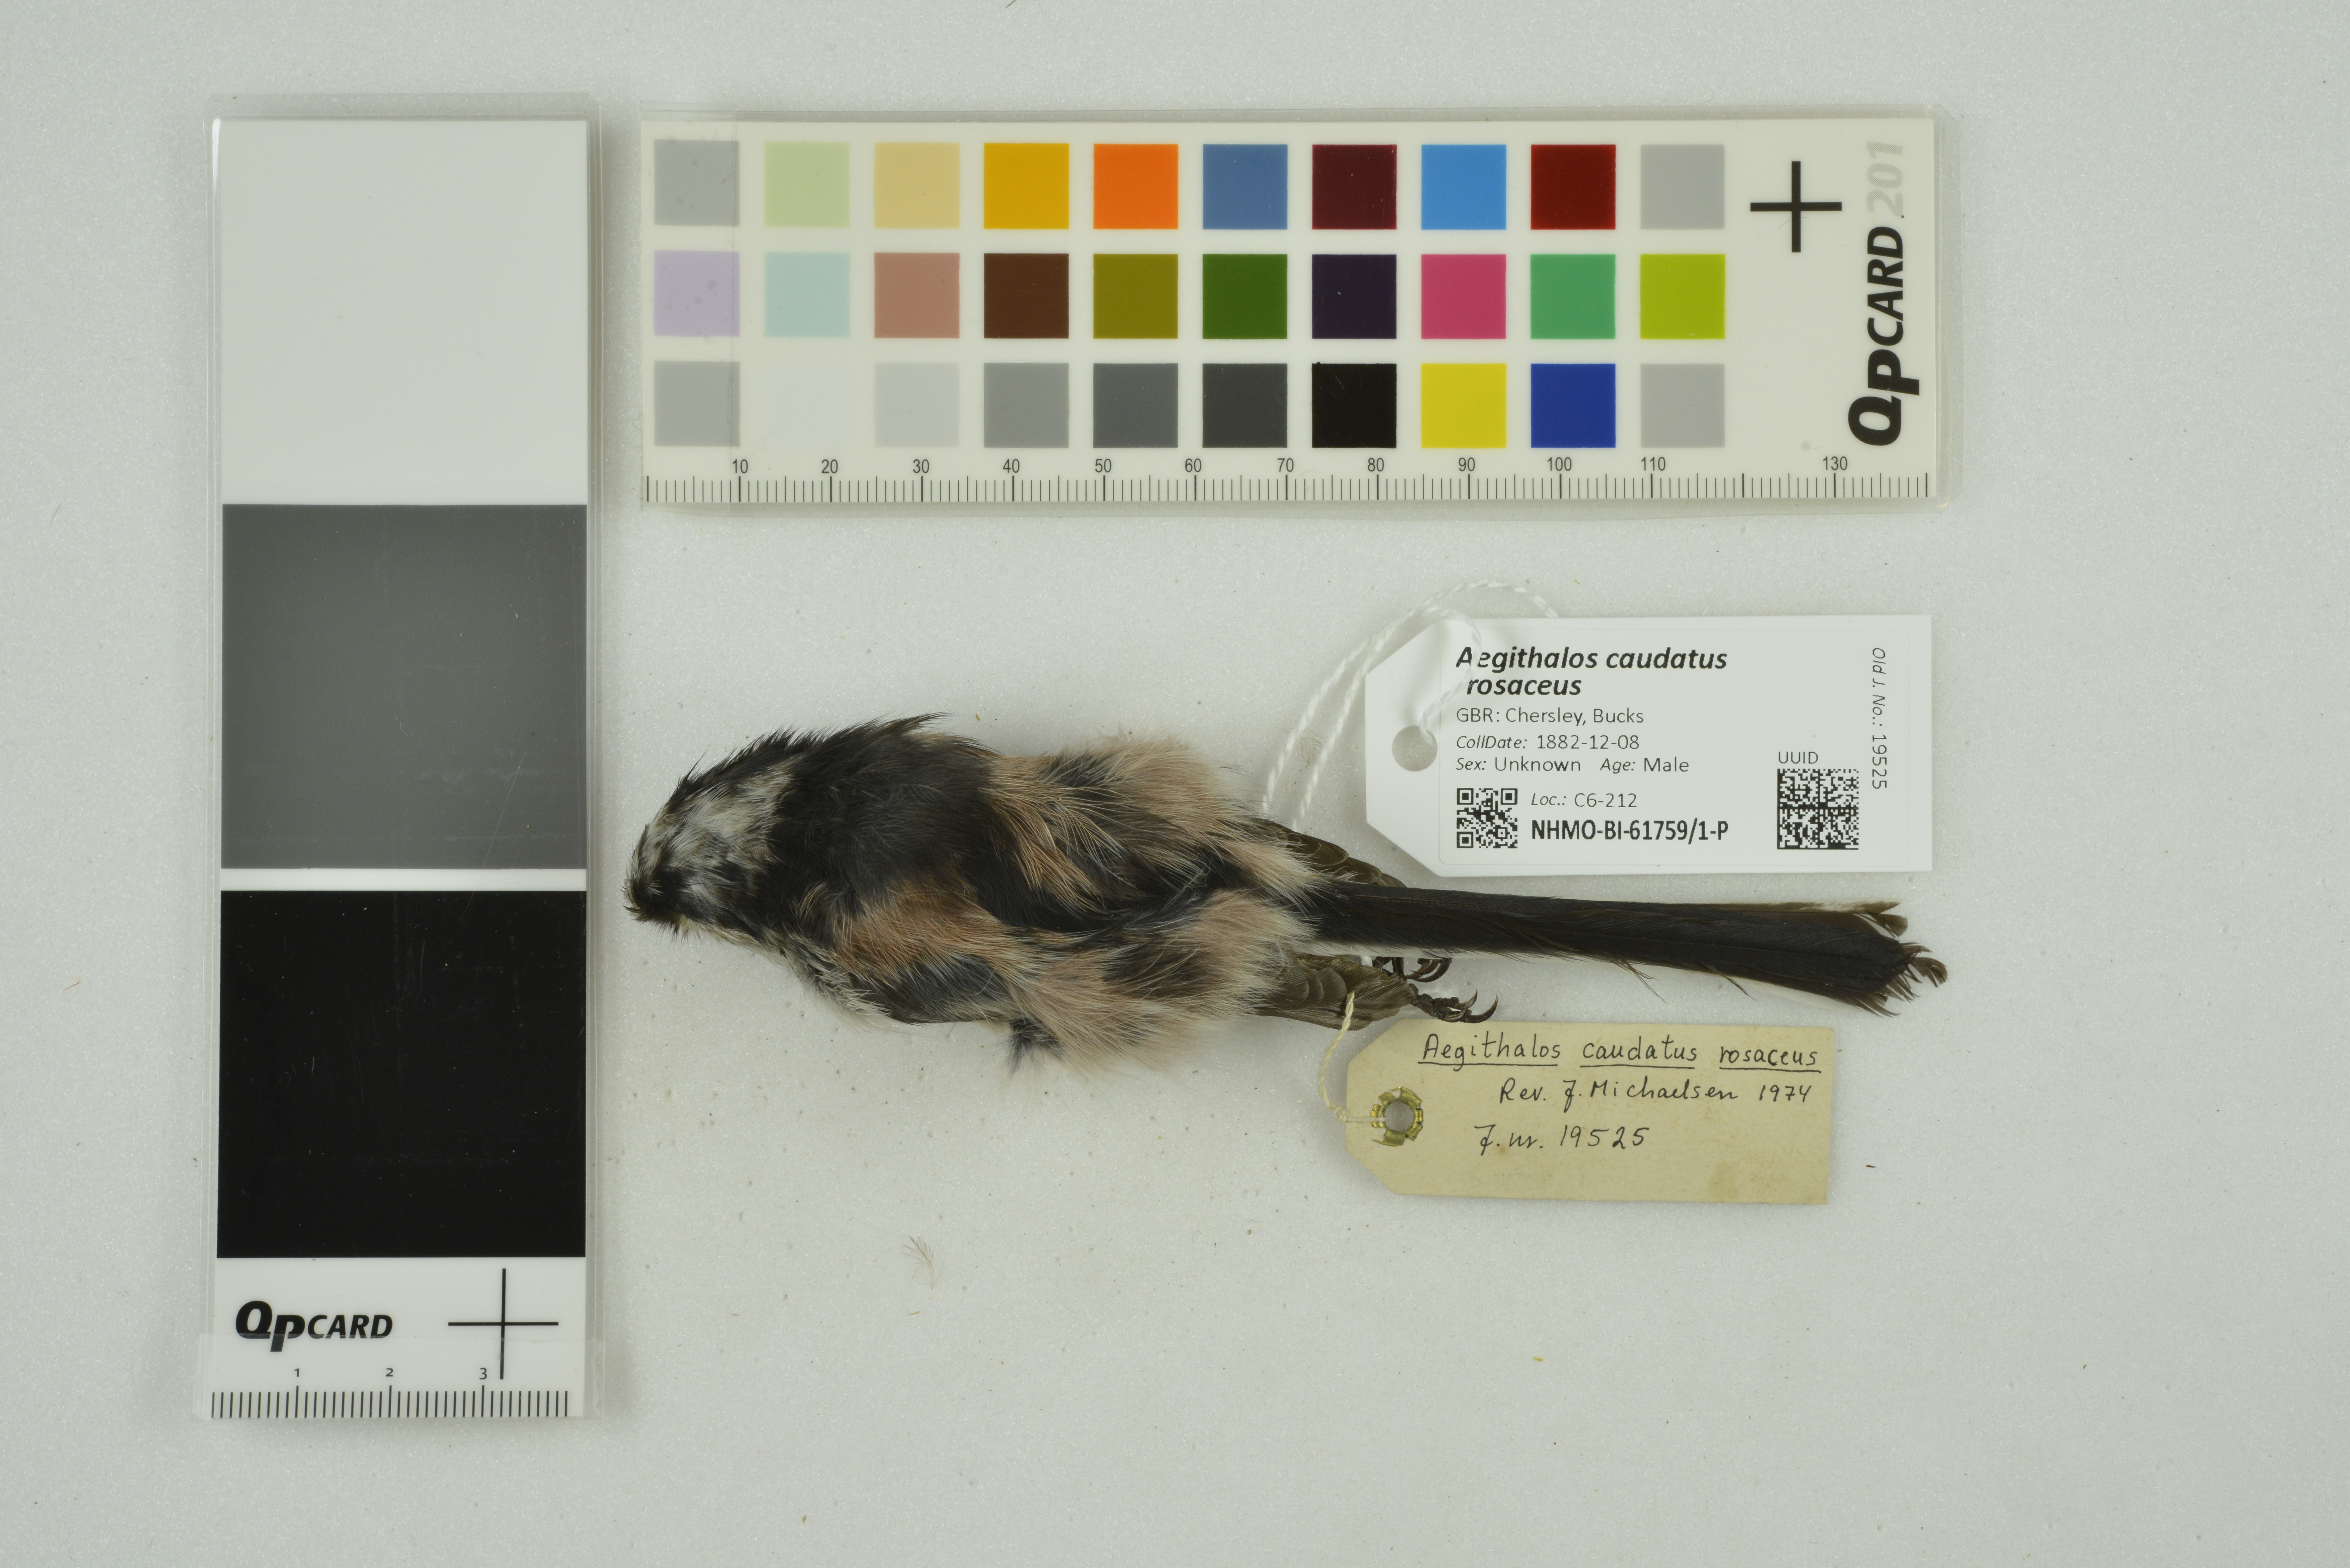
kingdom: Animalia
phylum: Chordata
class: Aves
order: Passeriformes
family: Aegithalidae
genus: Aegithalos
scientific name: Aegithalos caudatus
